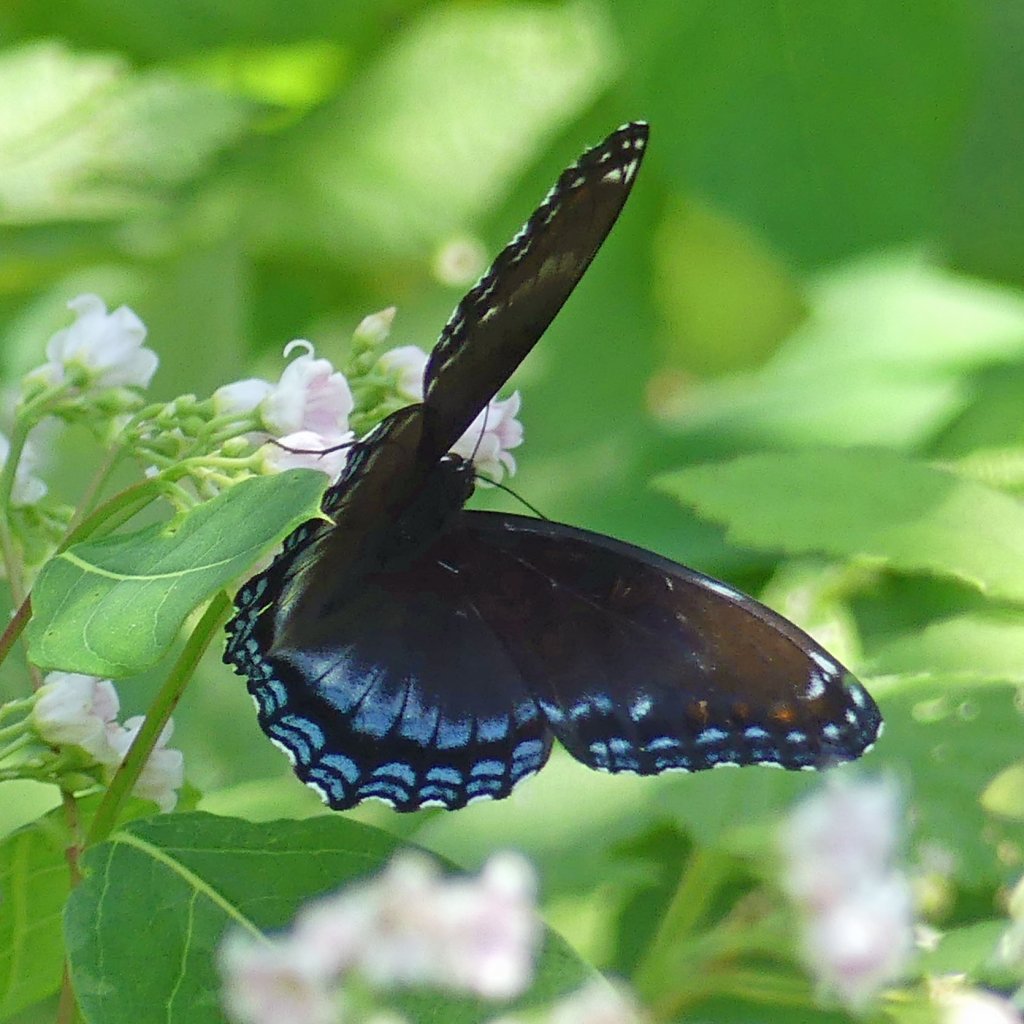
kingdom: Animalia
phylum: Arthropoda
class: Insecta
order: Lepidoptera
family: Nymphalidae
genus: Limenitis
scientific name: Limenitis
